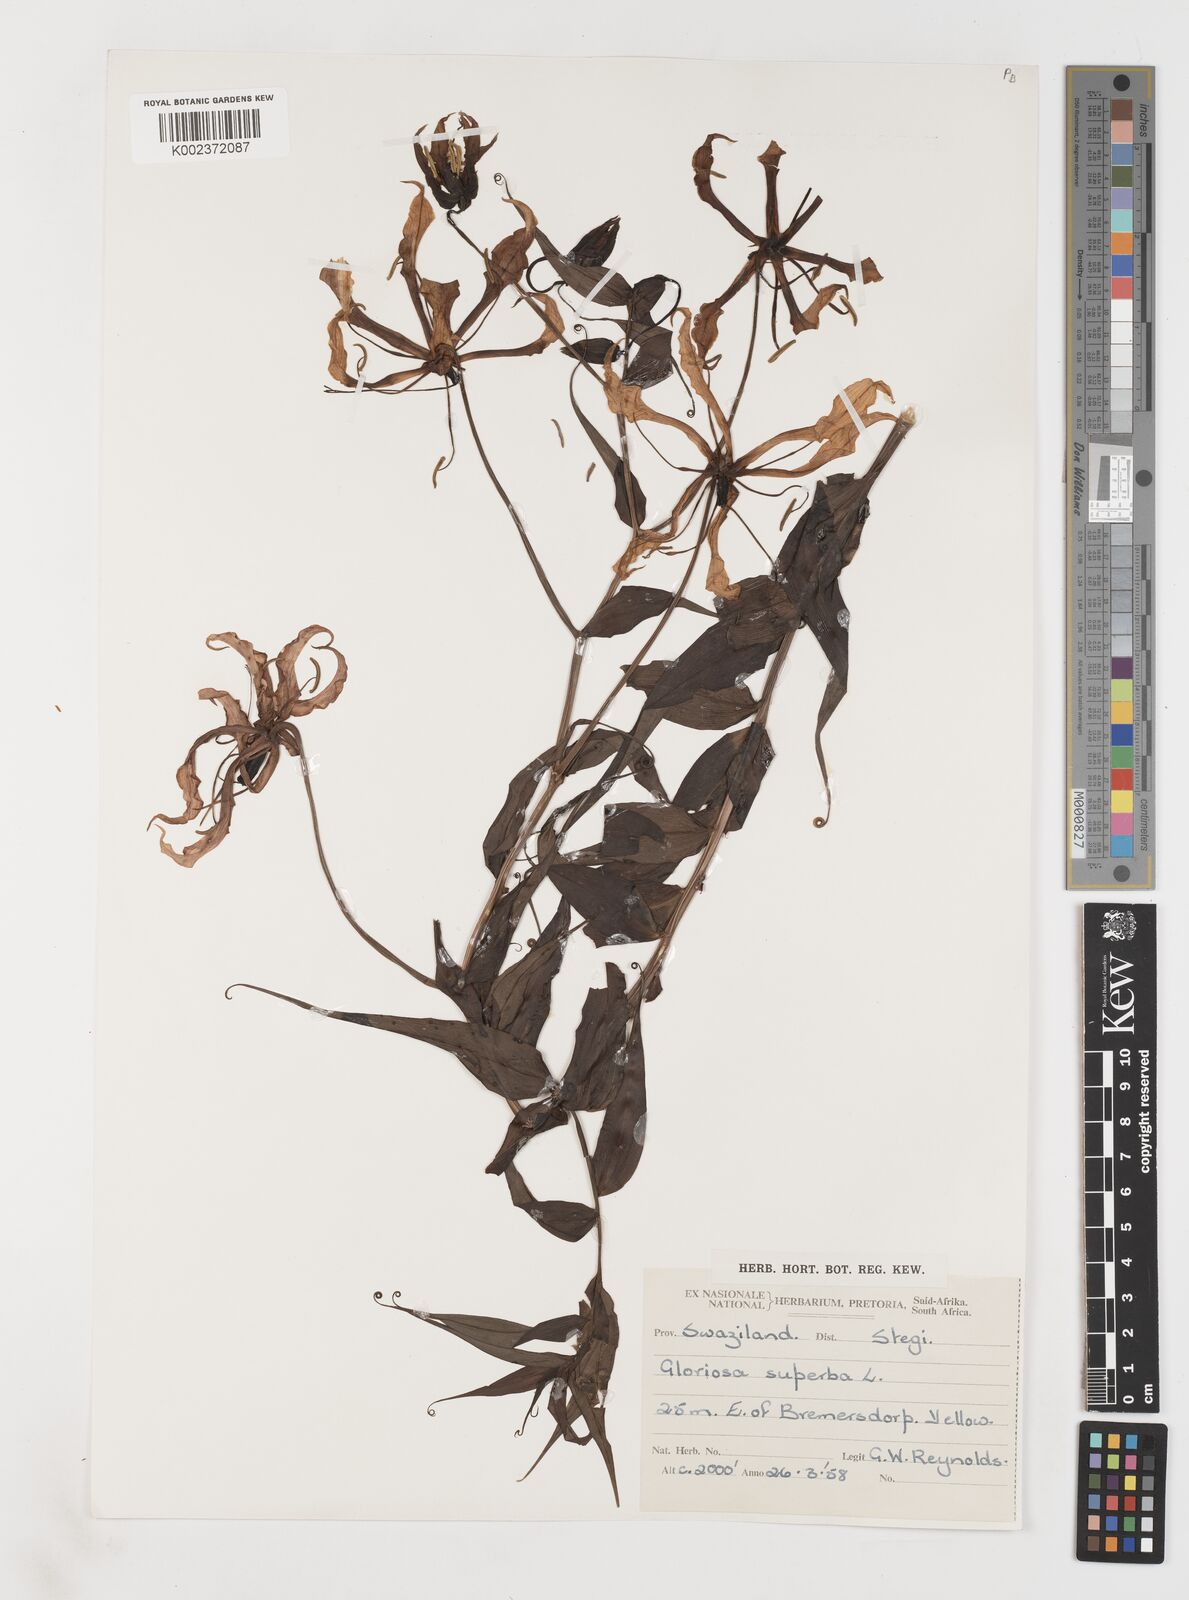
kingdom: Plantae
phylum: Tracheophyta
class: Liliopsida
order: Liliales
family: Colchicaceae
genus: Gloriosa
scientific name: Gloriosa superba
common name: Flame lily
